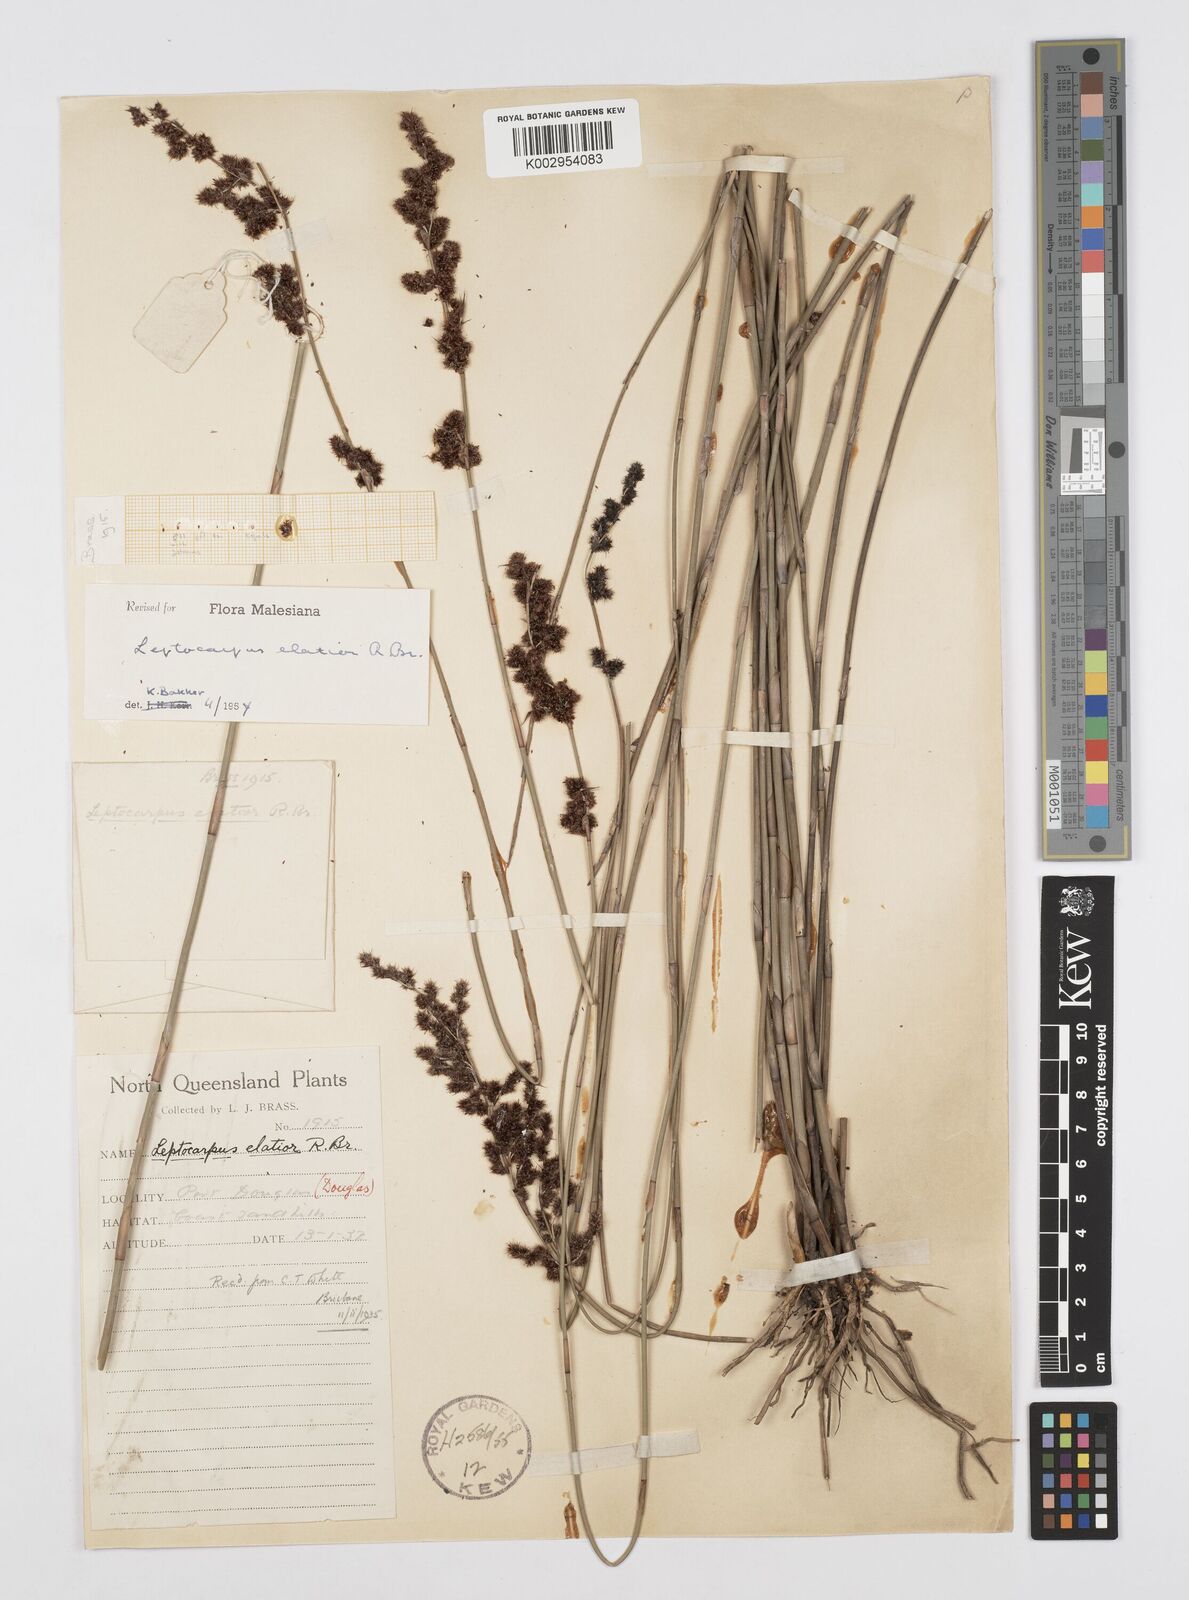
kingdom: Plantae
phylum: Tracheophyta
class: Liliopsida
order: Poales
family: Restionaceae
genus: Dapsilanthus
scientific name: Dapsilanthus elatior
